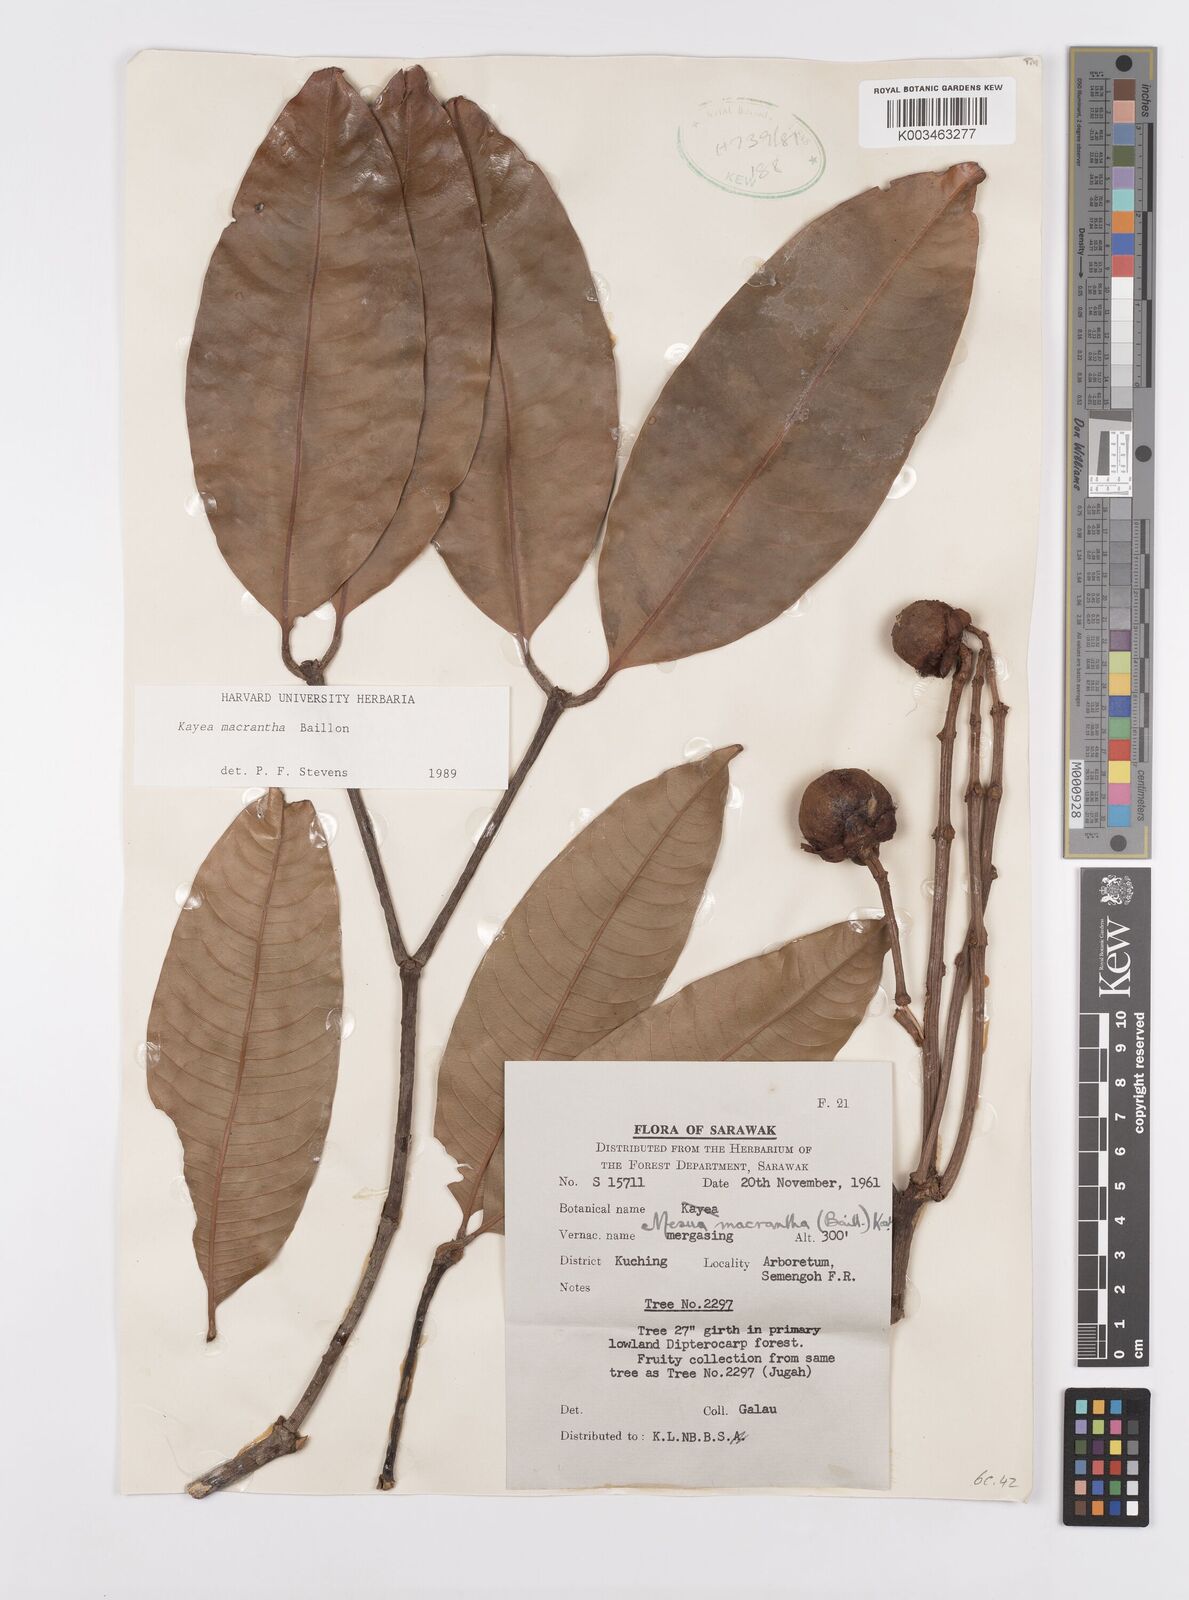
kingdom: Plantae
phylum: Tracheophyta
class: Magnoliopsida
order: Malpighiales
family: Calophyllaceae
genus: Kayea
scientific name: Kayea macrantha
